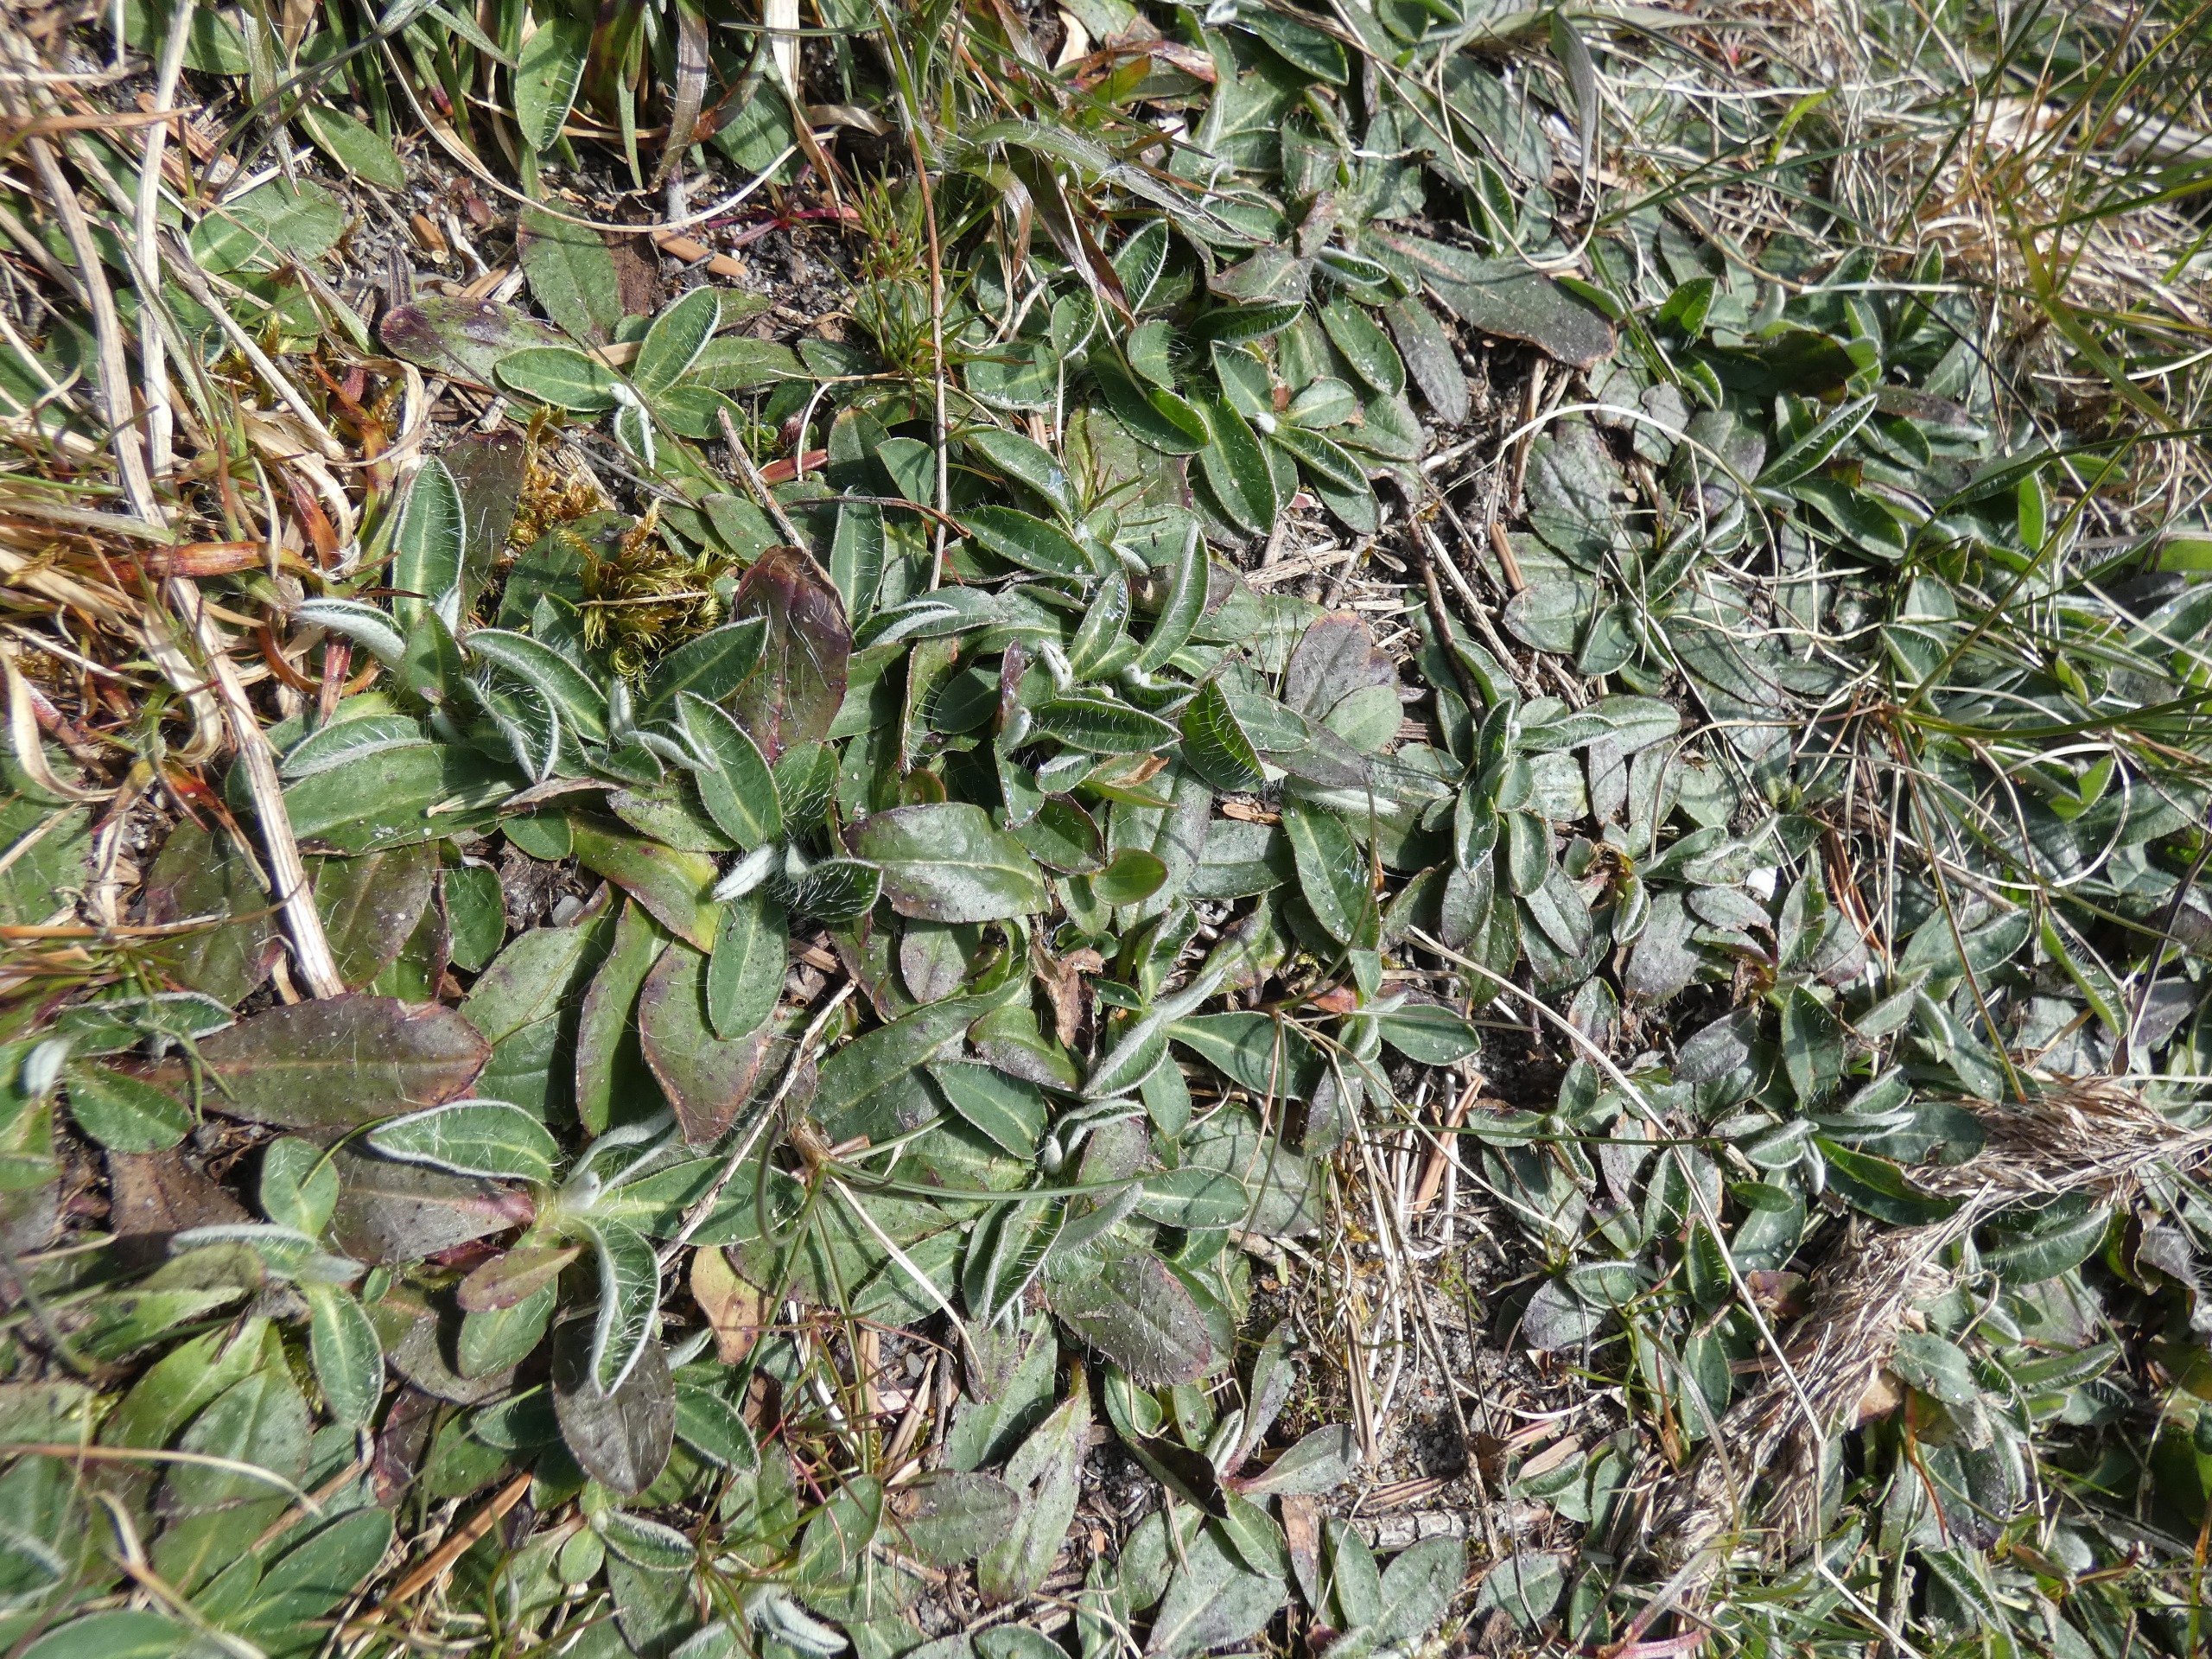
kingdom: Plantae
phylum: Tracheophyta
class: Magnoliopsida
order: Asterales
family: Asteraceae
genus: Pilosella
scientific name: Pilosella officinarum
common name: Håret høgeurt
